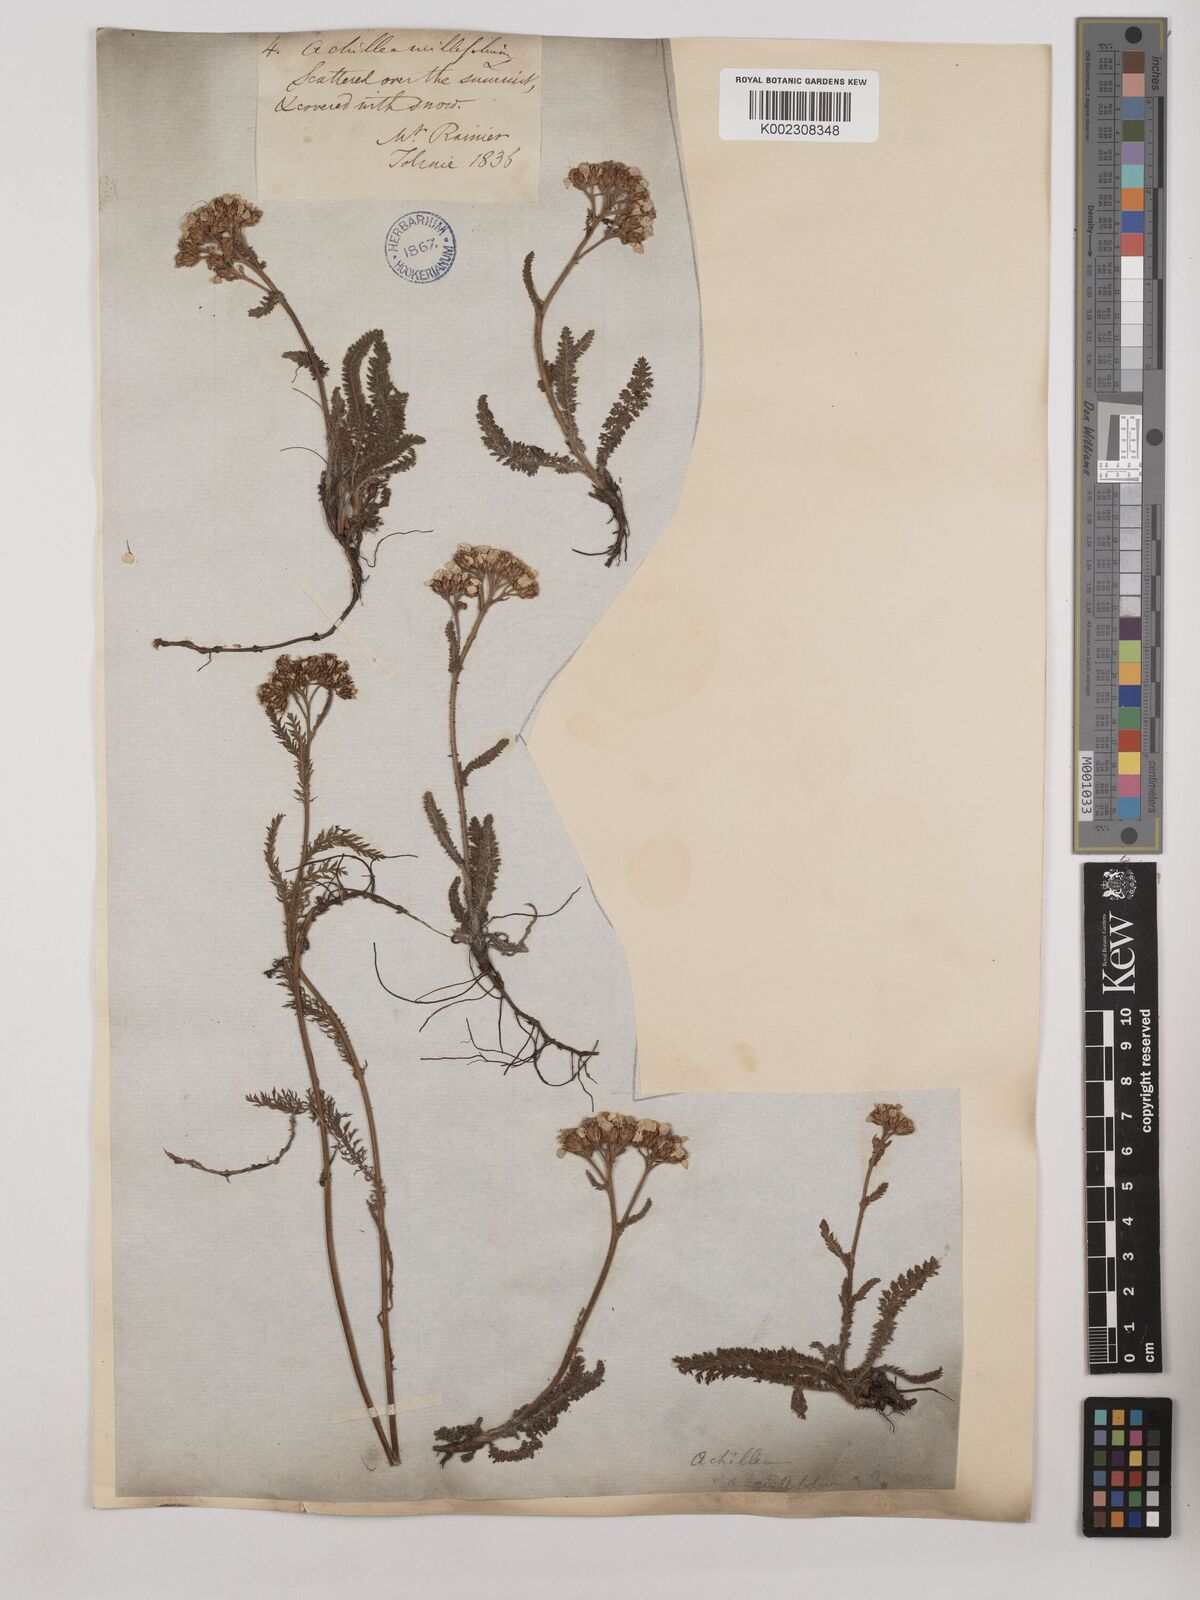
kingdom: Plantae
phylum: Tracheophyta
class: Magnoliopsida
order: Asterales
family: Asteraceae
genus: Achillea
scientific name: Achillea millefolium
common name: Yarrow
